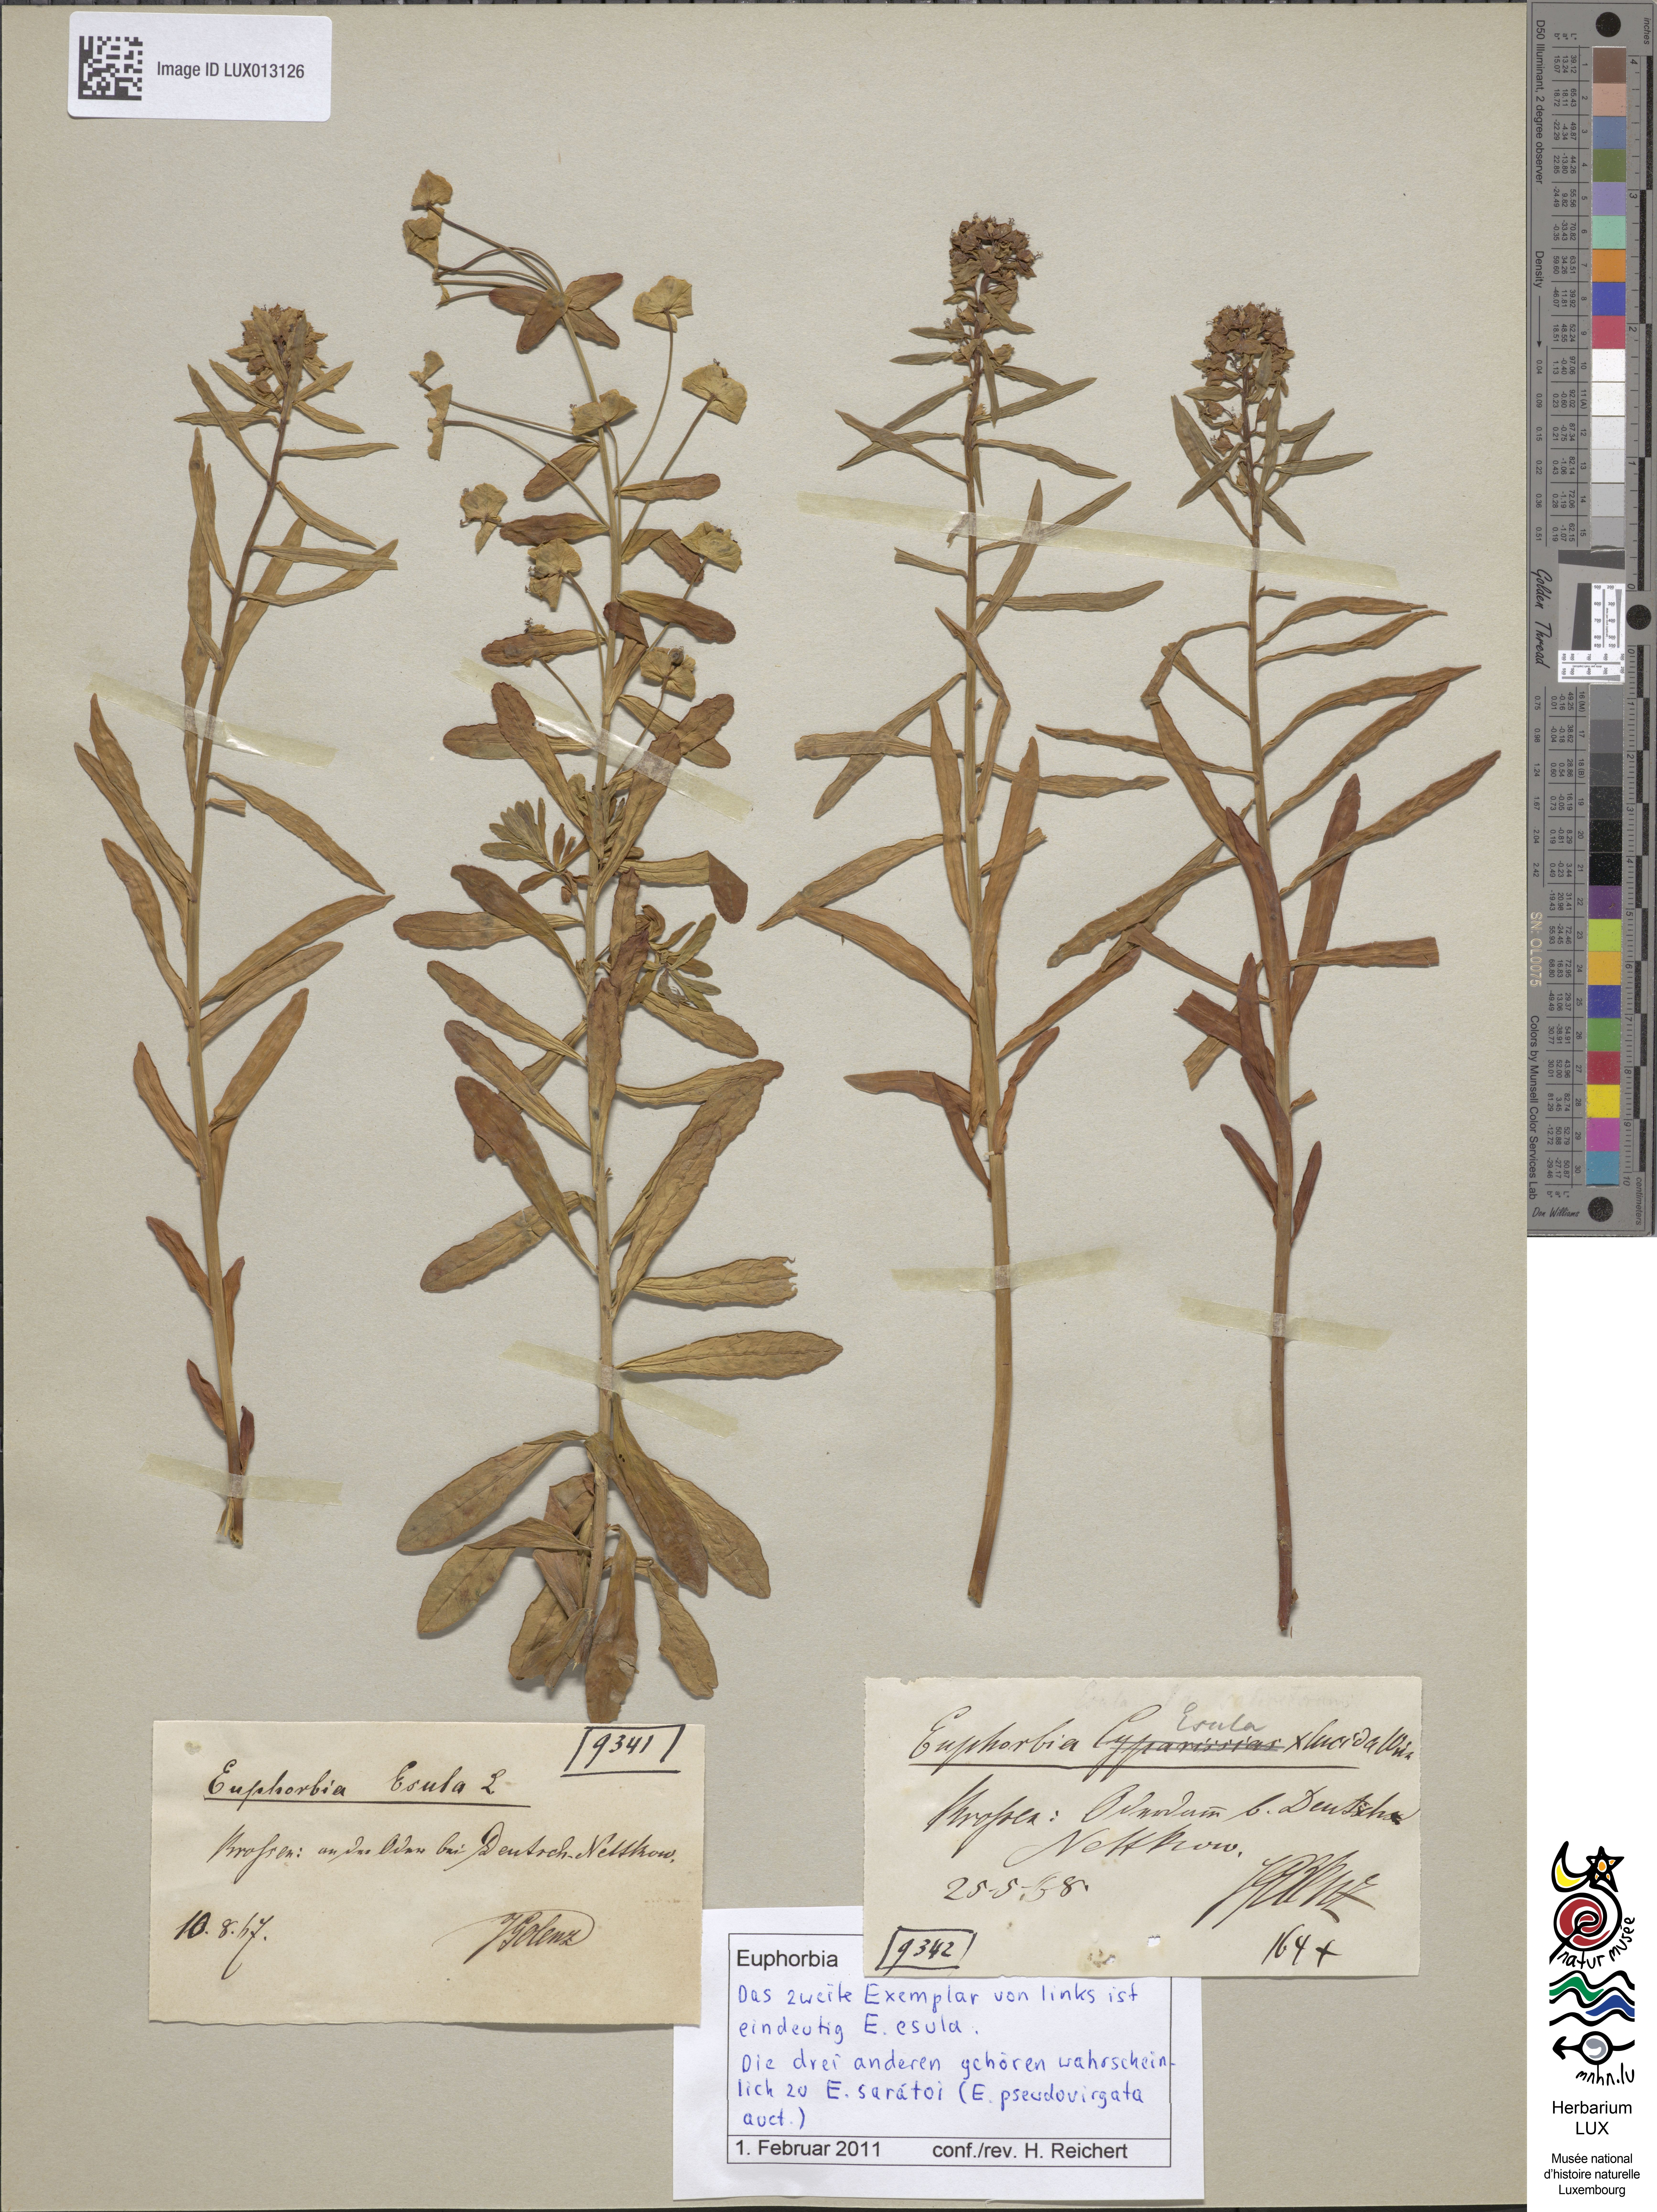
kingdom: Plantae
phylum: Tracheophyta
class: Magnoliopsida
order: Malpighiales
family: Euphorbiaceae
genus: Euphorbia
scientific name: Euphorbia saratoi
